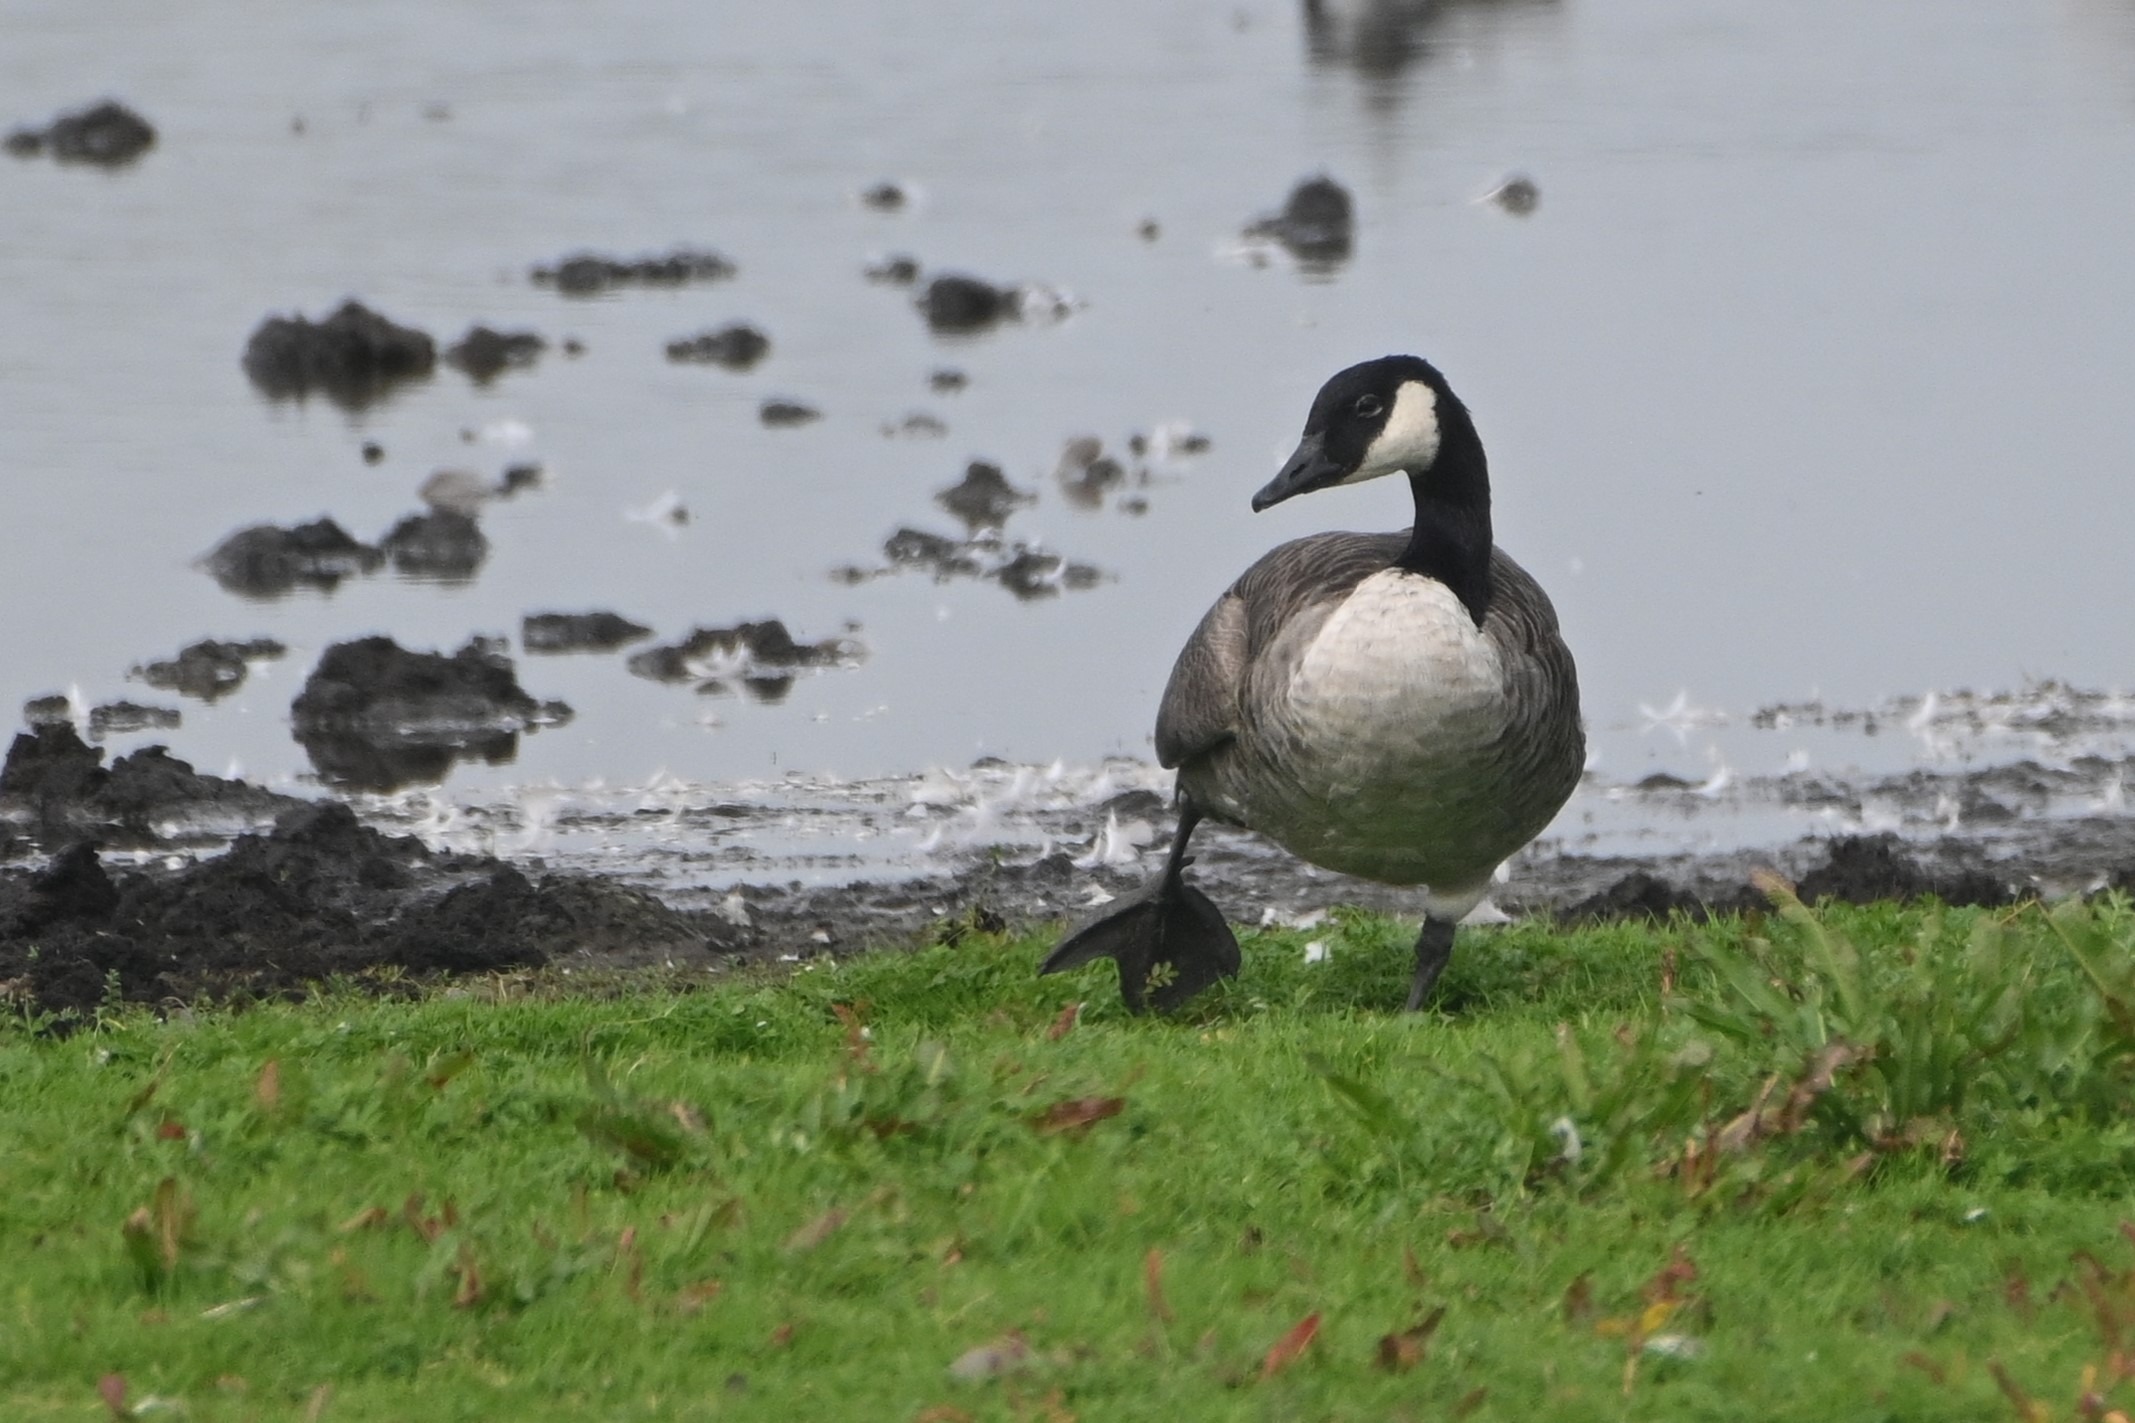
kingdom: Animalia
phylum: Chordata
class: Aves
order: Anseriformes
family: Anatidae
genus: Branta
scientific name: Branta canadensis
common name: Canadagås
